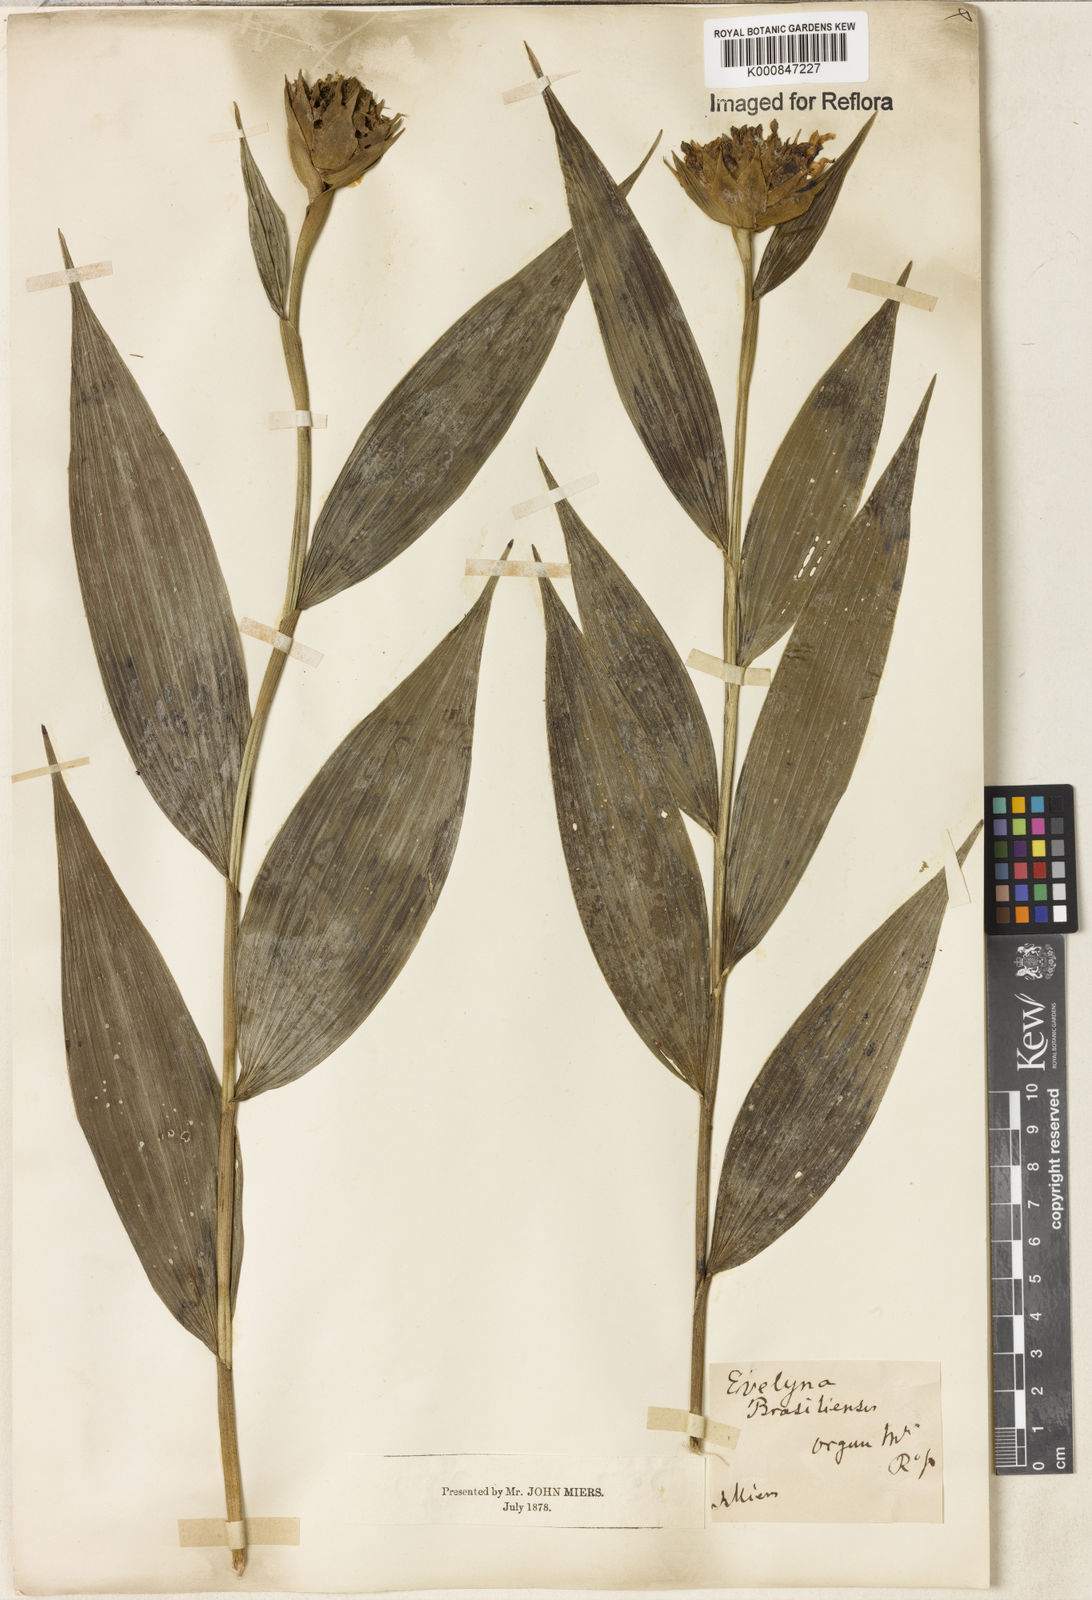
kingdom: Plantae
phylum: Tracheophyta
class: Liliopsida
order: Asparagales
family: Orchidaceae
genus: Elleanthus
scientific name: Elleanthus brasiliensis
